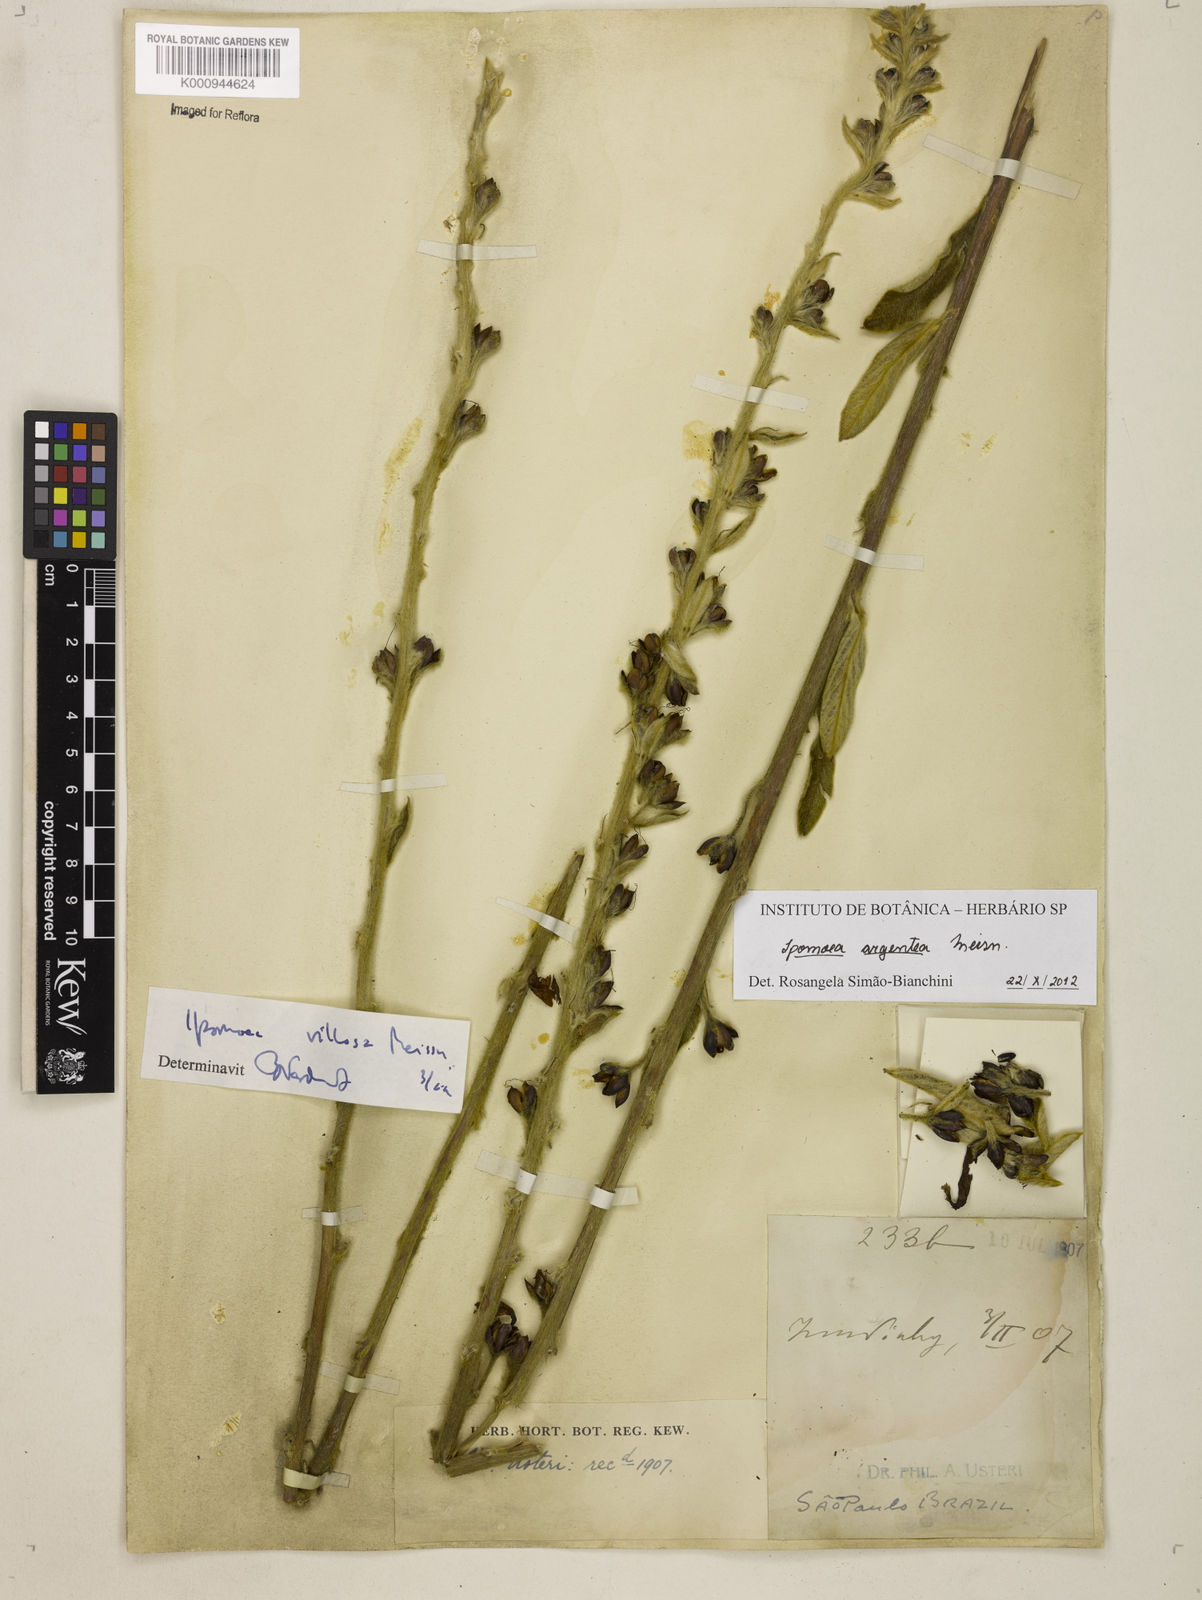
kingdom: Plantae
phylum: Tracheophyta
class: Magnoliopsida
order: Solanales
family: Convolvulaceae
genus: Ipomoea
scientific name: Ipomoea argentea
